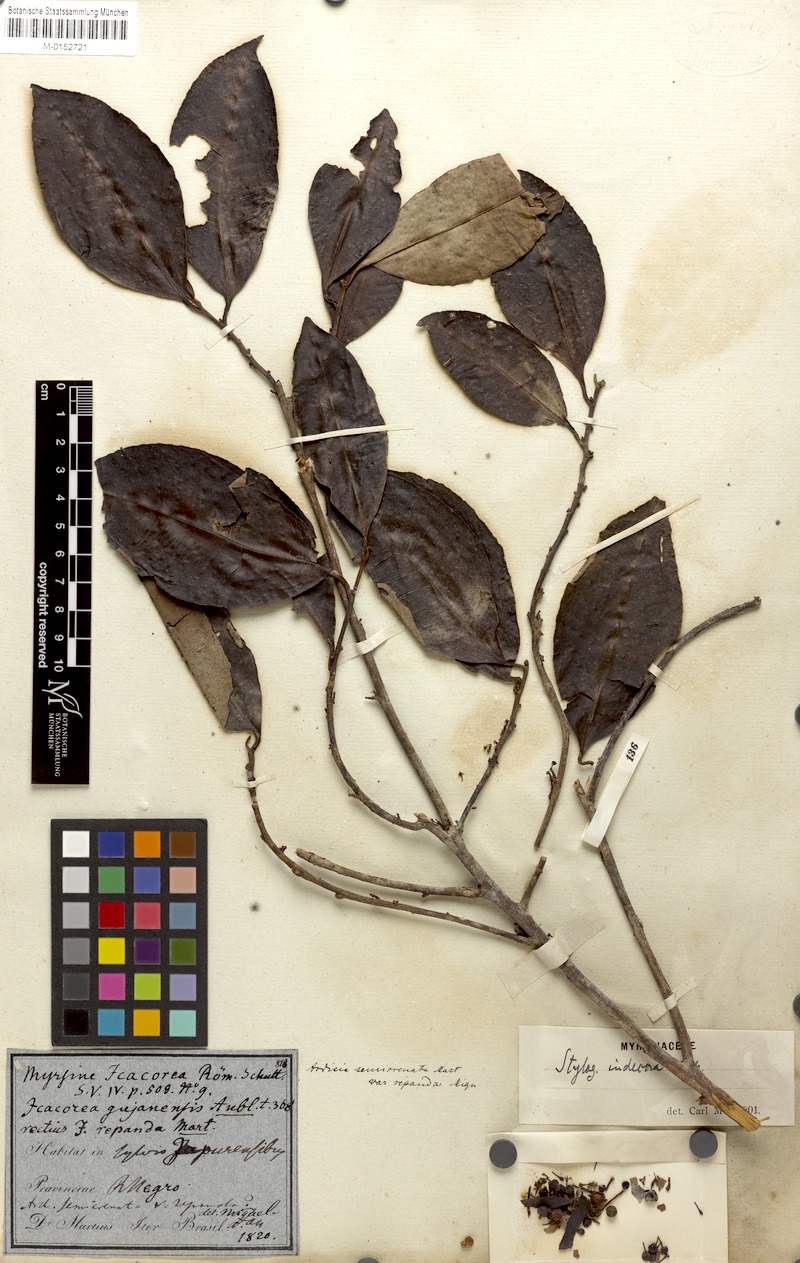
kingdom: Plantae
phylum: Tracheophyta
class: Magnoliopsida
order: Ericales
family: Primulaceae
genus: Stylogyne
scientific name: Stylogyne cauliflora
